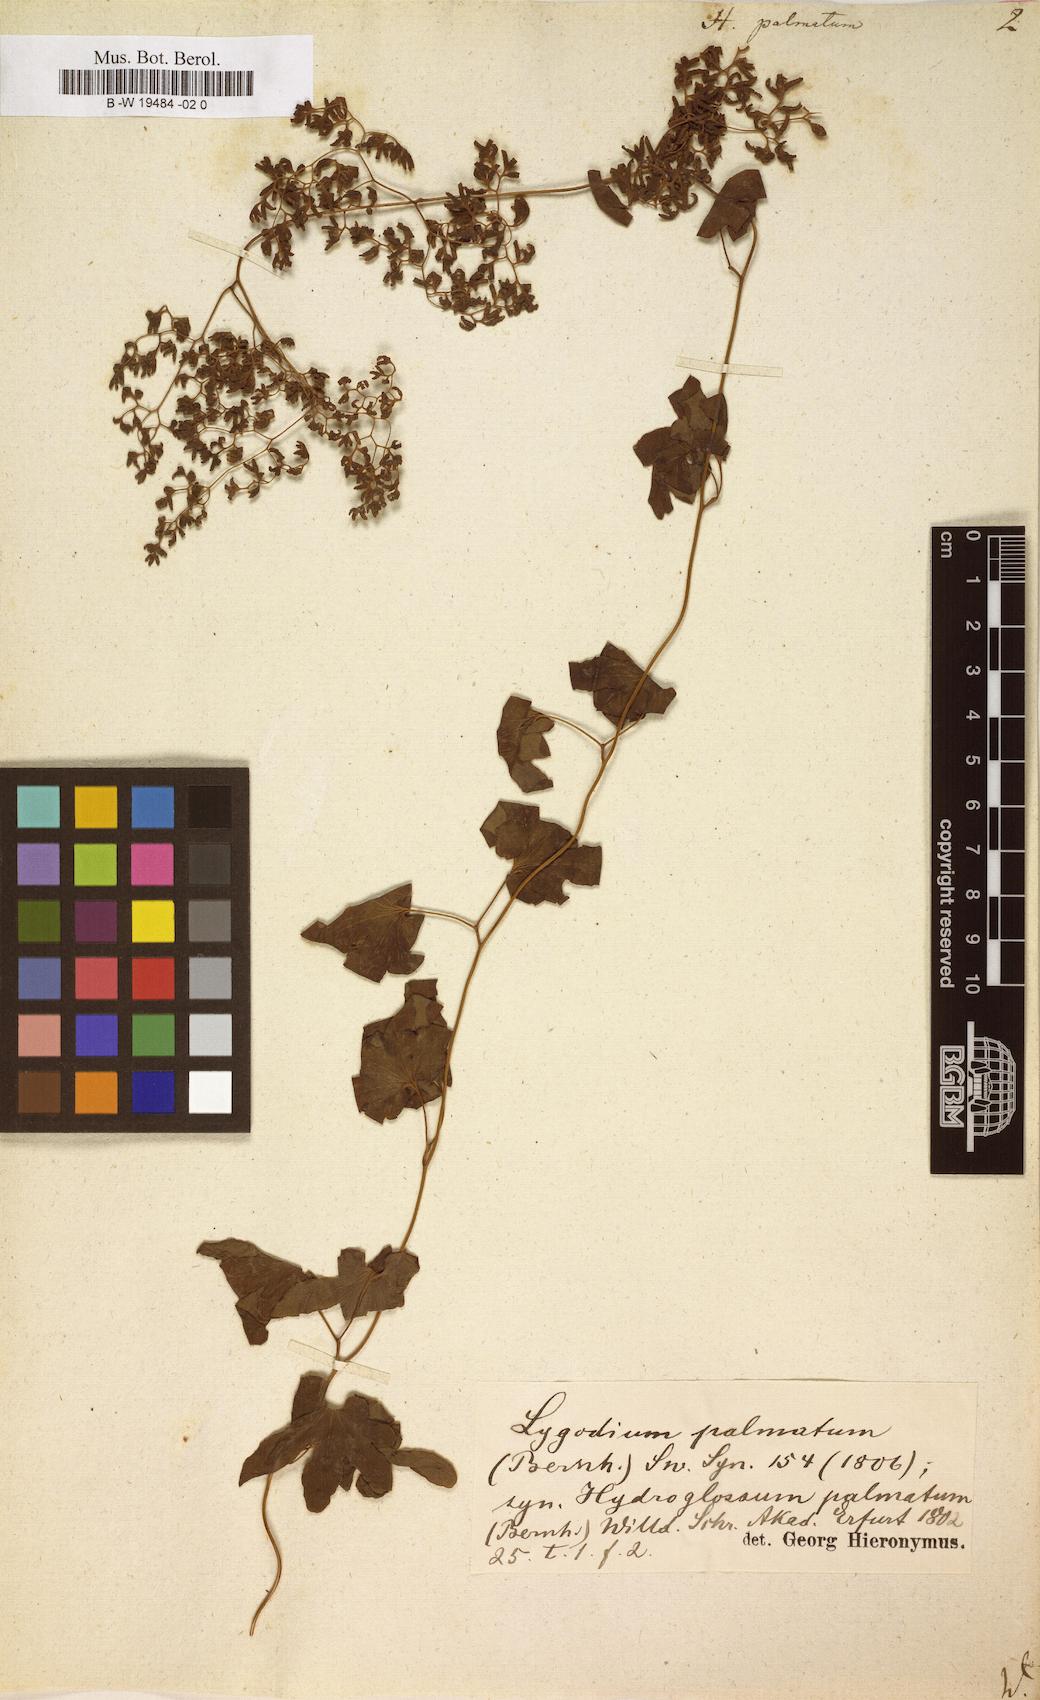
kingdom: Plantae
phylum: Tracheophyta
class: Polypodiopsida
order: Schizaeales
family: Lygodiaceae
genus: Lygodium
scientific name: Lygodium palmatum
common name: American climbing fern
